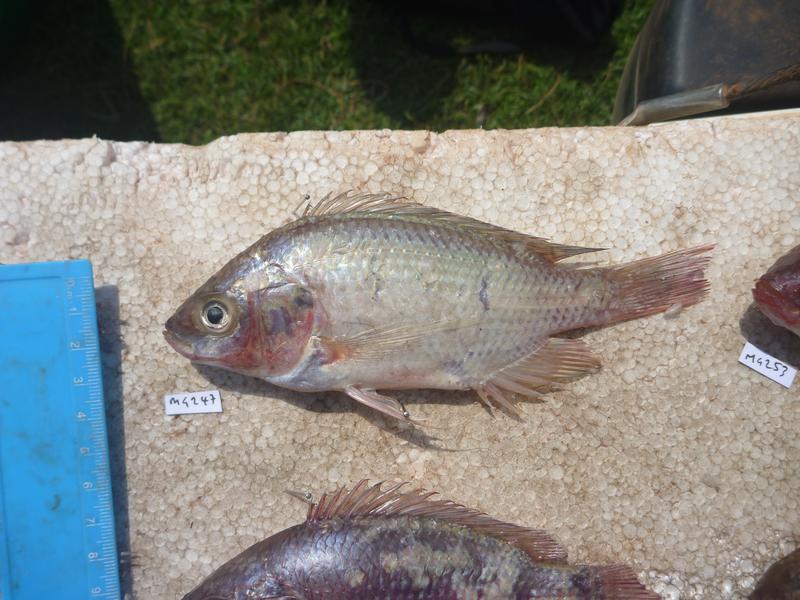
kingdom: Animalia
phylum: Chordata
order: Perciformes
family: Cichlidae
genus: Oreochromis
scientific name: Oreochromis esculentus
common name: Carp
